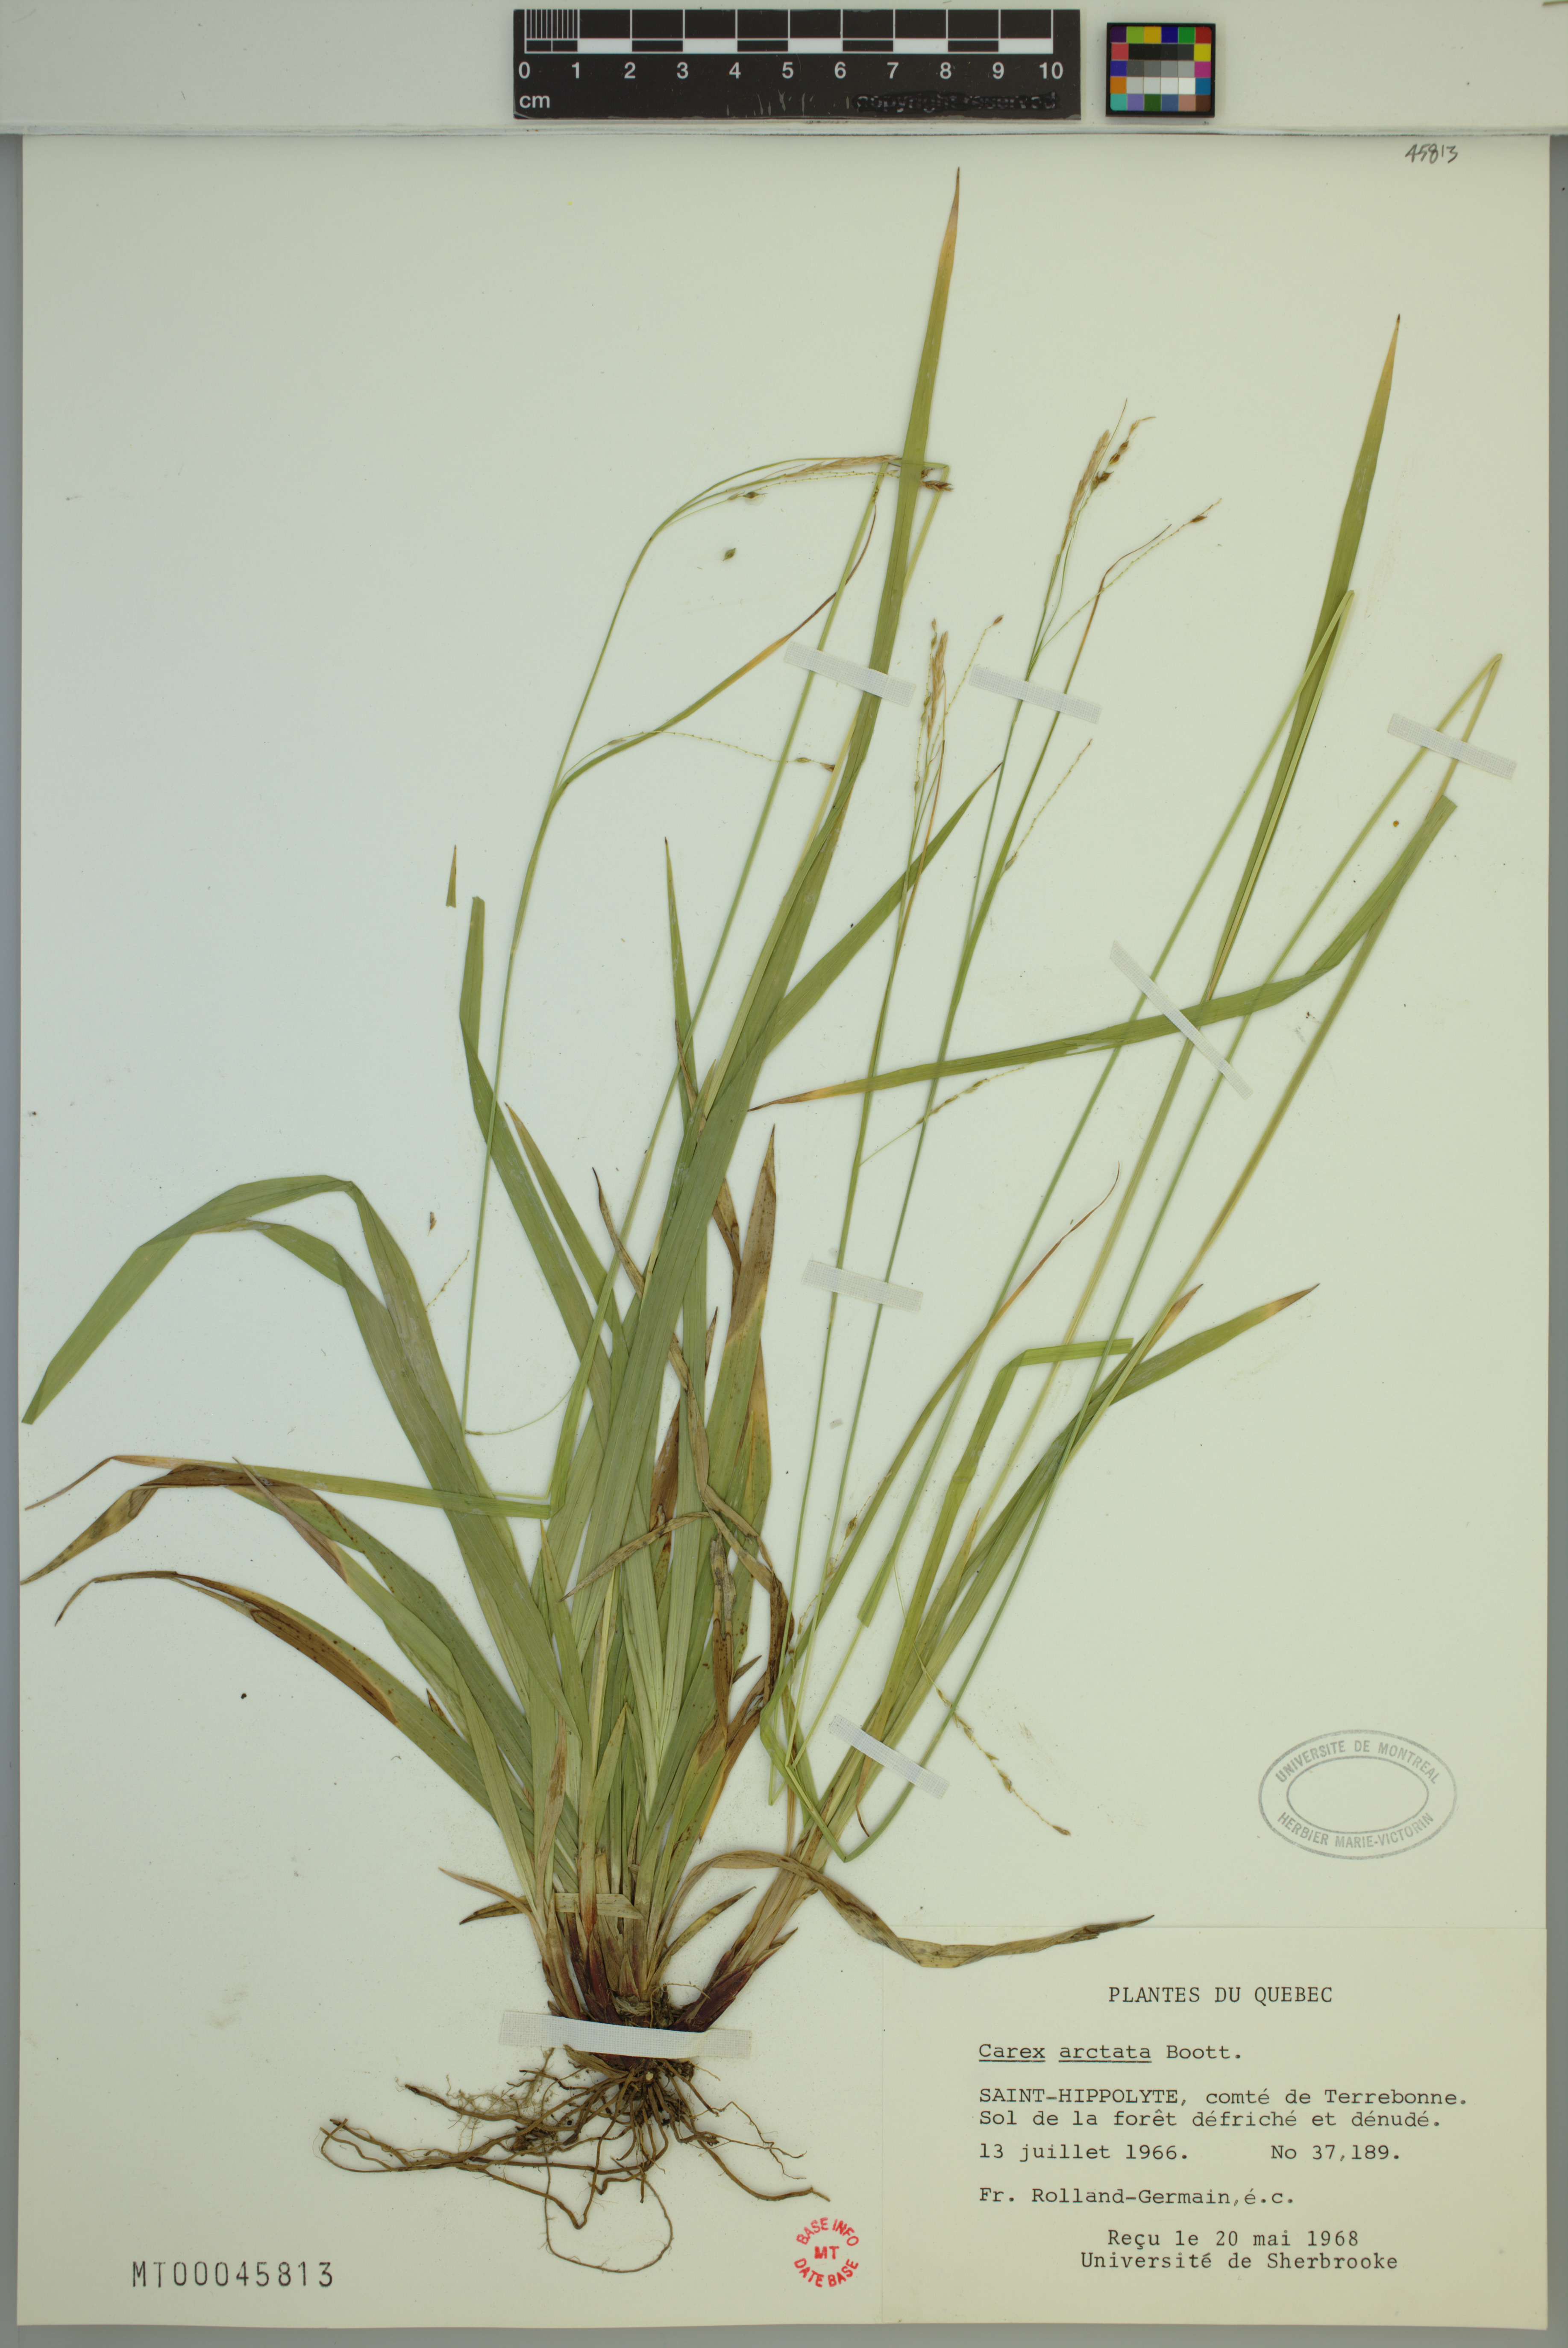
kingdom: Plantae
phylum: Tracheophyta
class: Liliopsida
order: Poales
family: Cyperaceae
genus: Carex
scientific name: Carex arctata
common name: Black sedge
